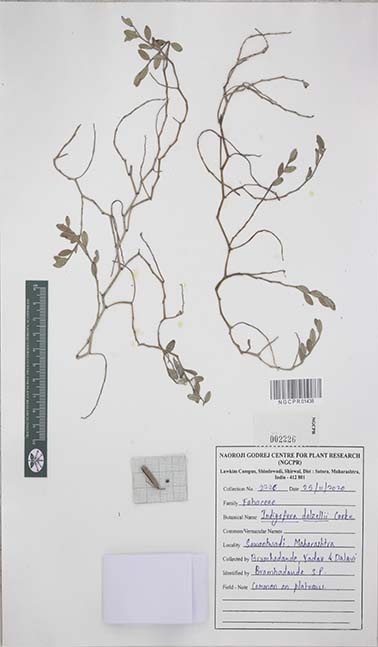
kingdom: Plantae
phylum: Tracheophyta
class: Magnoliopsida
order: Fabales
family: Fabaceae
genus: Indigofera
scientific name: Indigofera dalzelliana
